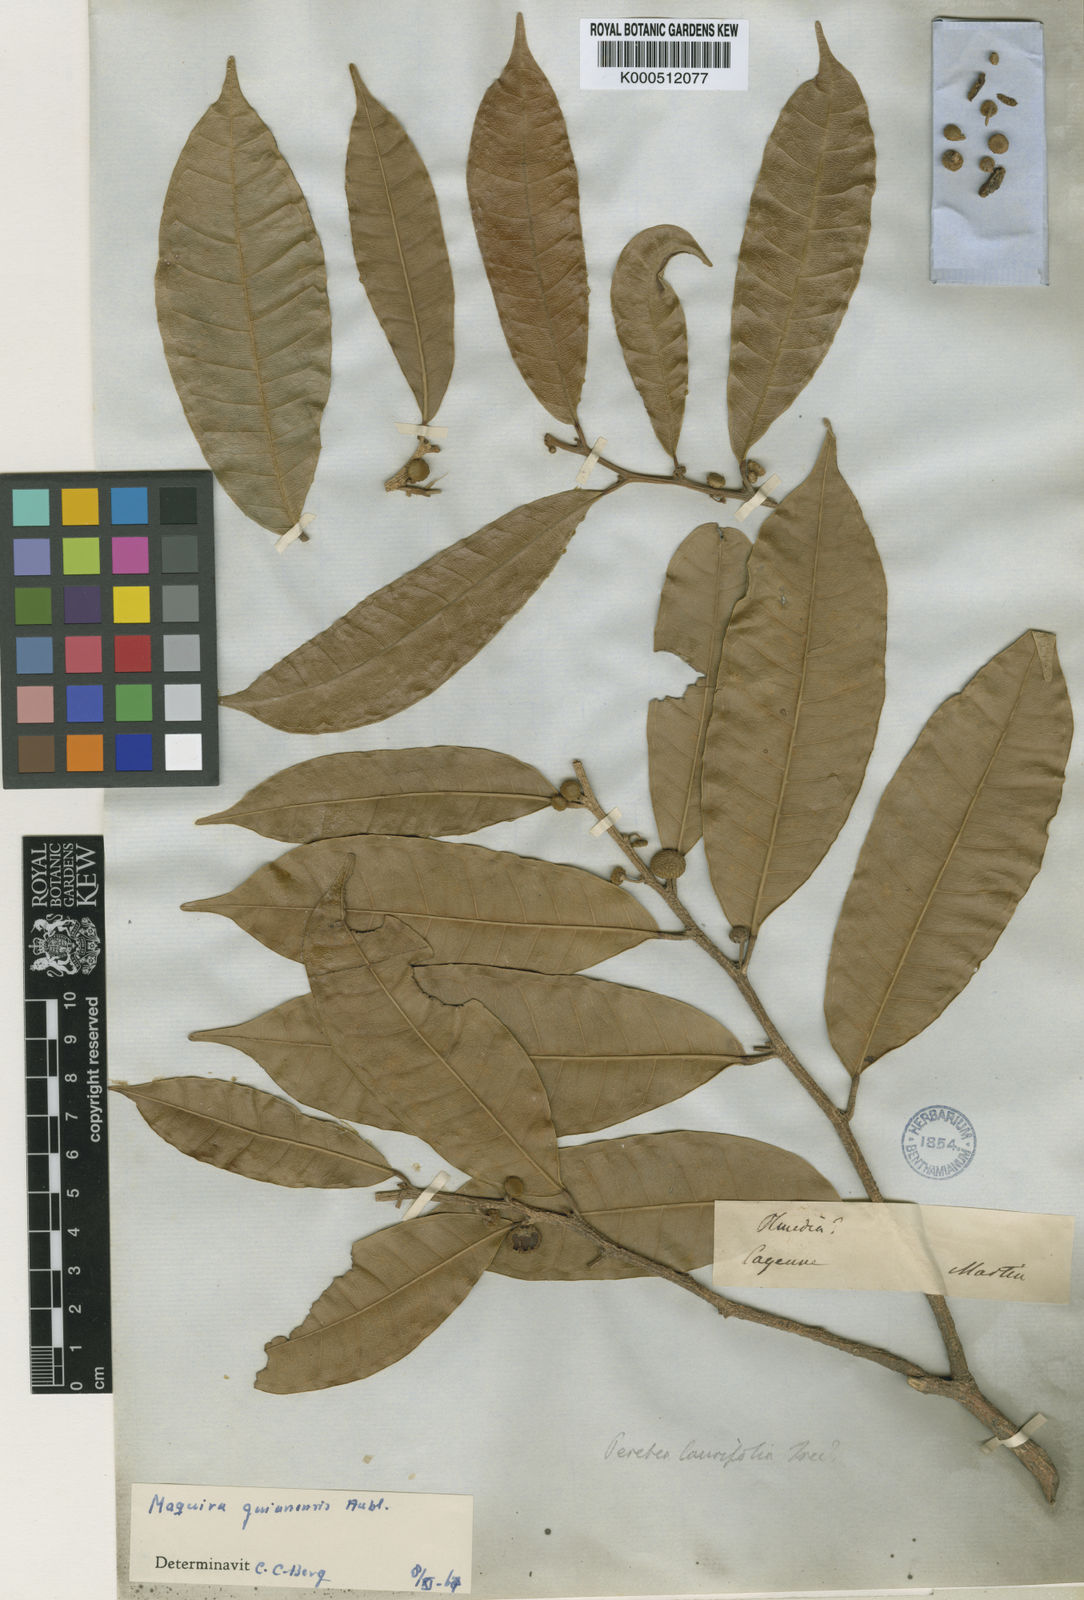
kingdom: Plantae
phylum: Tracheophyta
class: Magnoliopsida
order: Rosales
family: Moraceae
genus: Maquira
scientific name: Maquira guianensis
